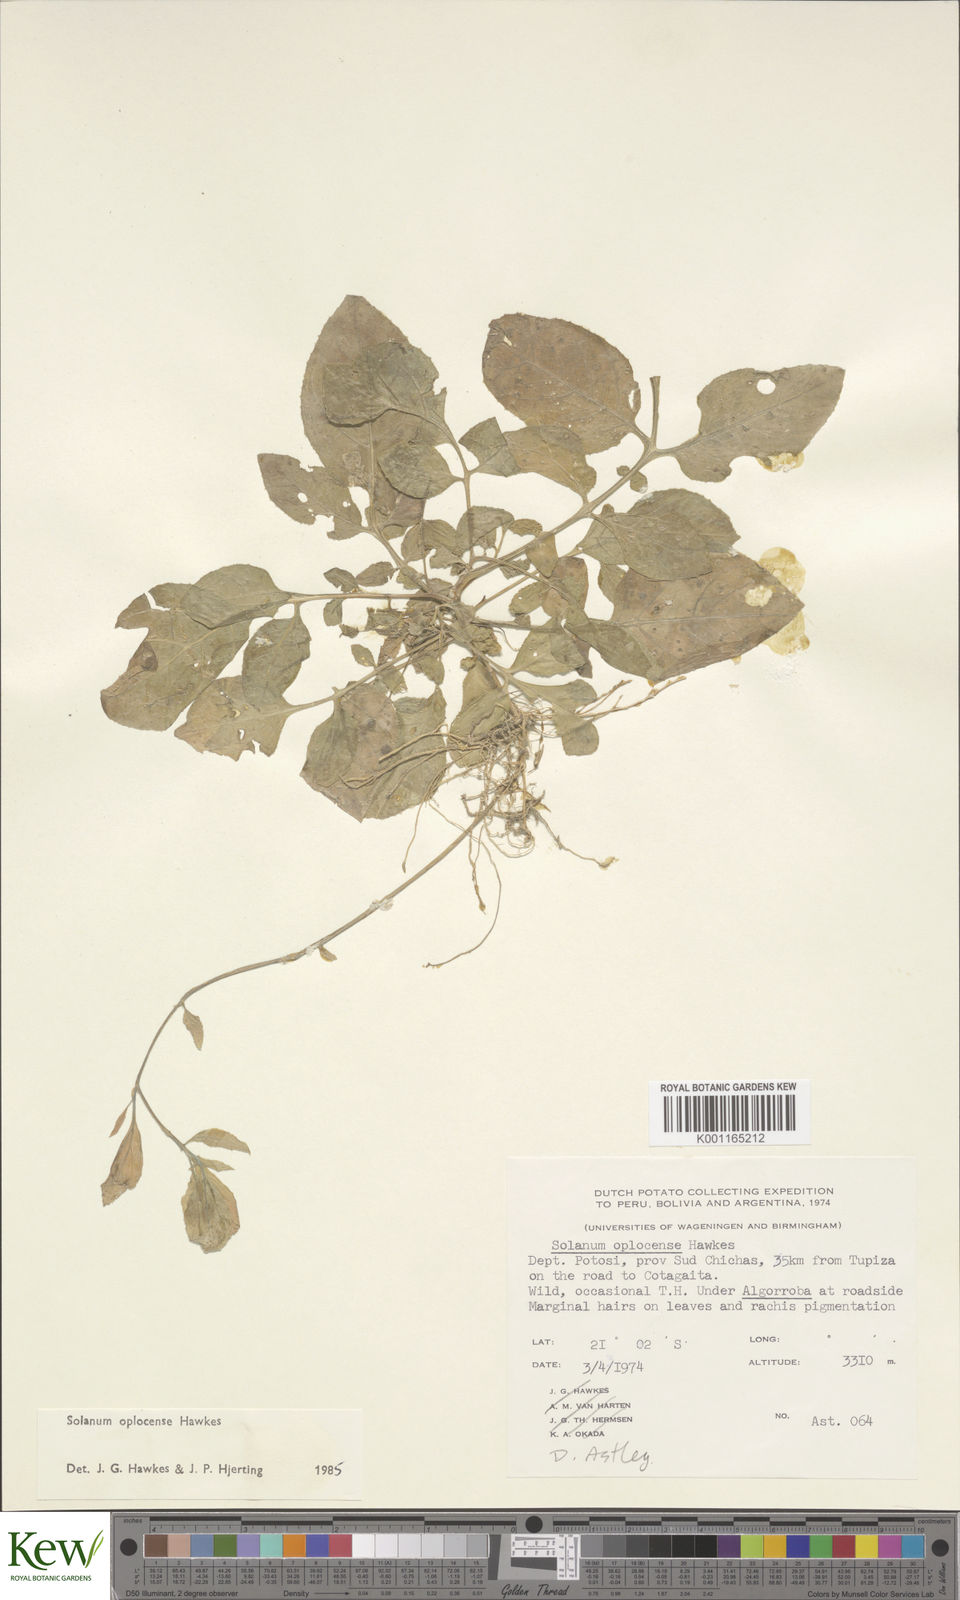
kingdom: Plantae
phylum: Tracheophyta
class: Magnoliopsida
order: Solanales
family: Solanaceae
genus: Solanum
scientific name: Solanum brevicaule
